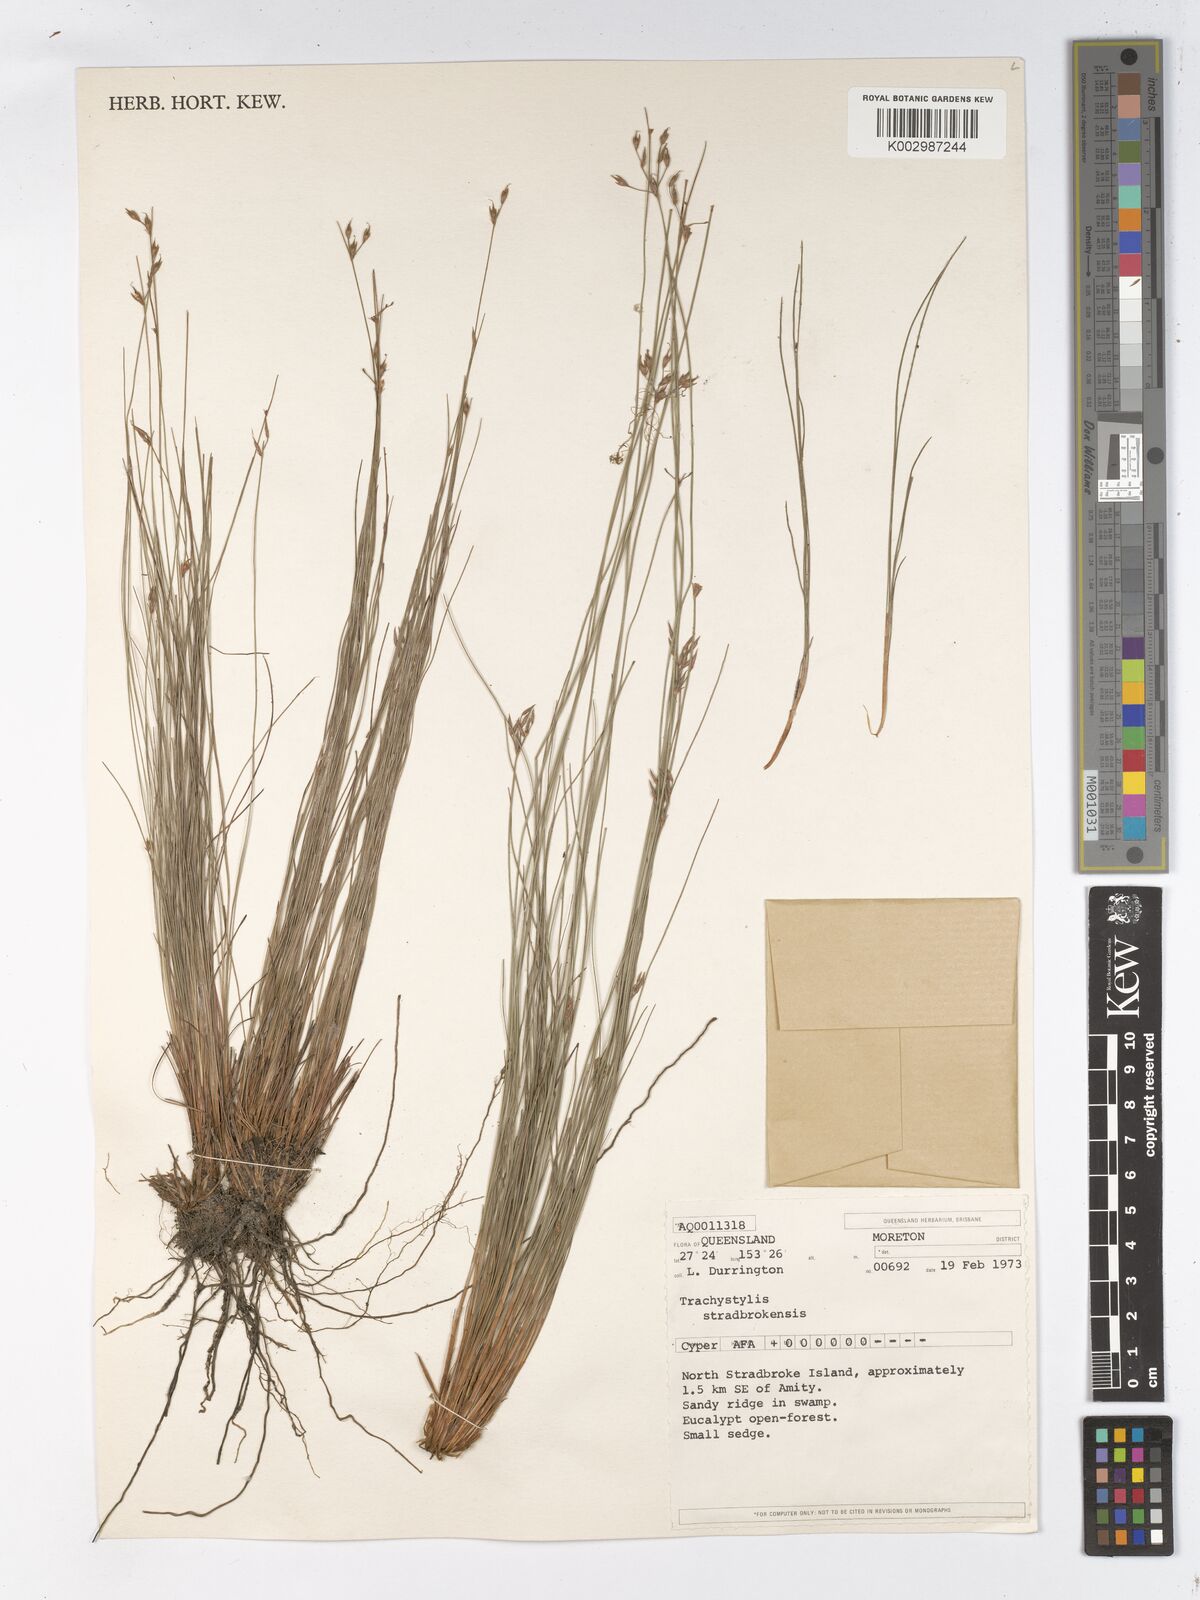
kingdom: Plantae
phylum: Tracheophyta
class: Liliopsida
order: Poales
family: Cyperaceae
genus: Trachystylis
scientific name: Trachystylis stradbrokensis
